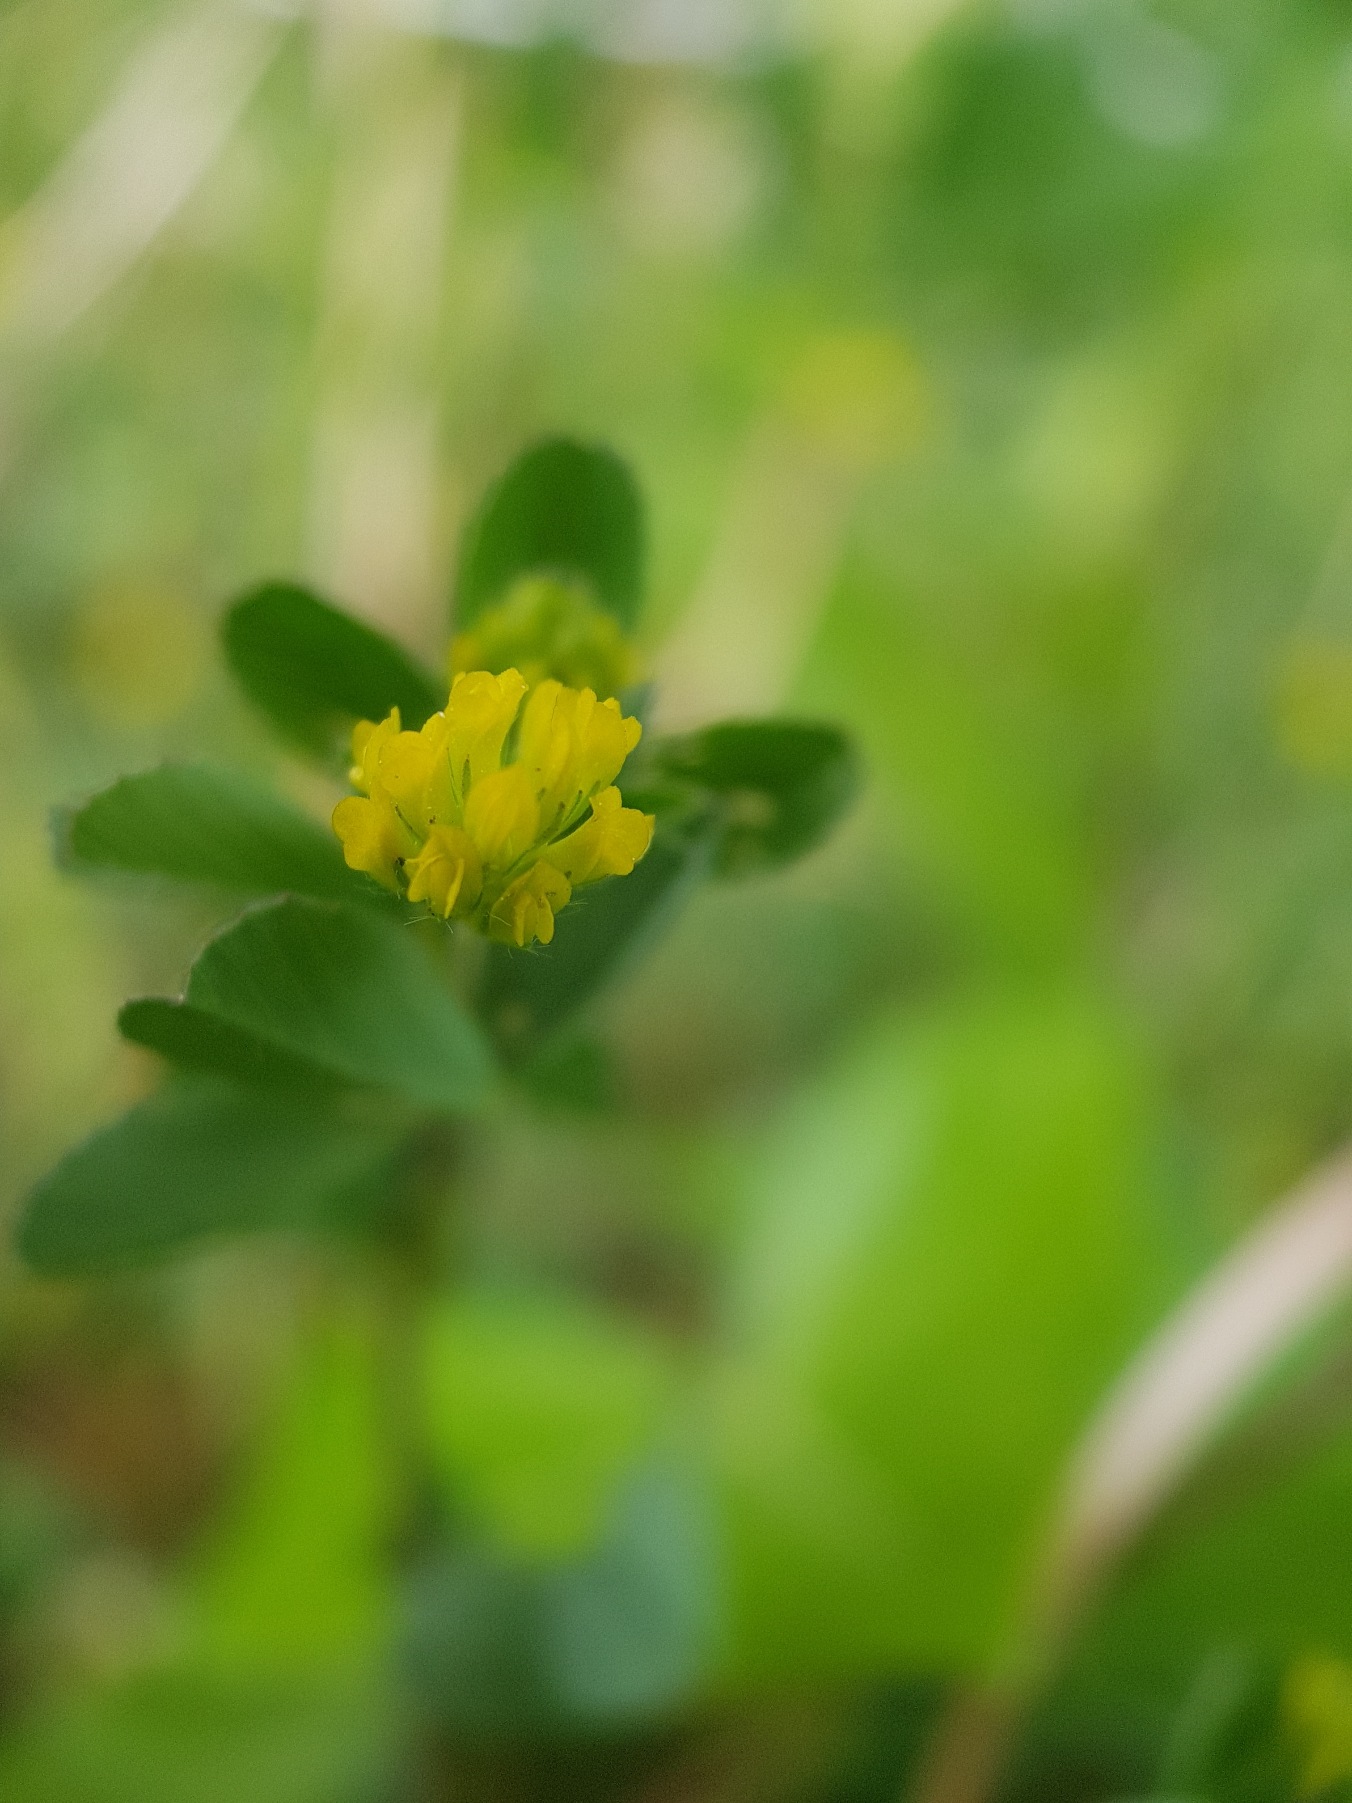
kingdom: Plantae
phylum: Tracheophyta
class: Magnoliopsida
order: Fabales
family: Fabaceae
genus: Trifolium
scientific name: Trifolium dubium
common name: Fin kløver
